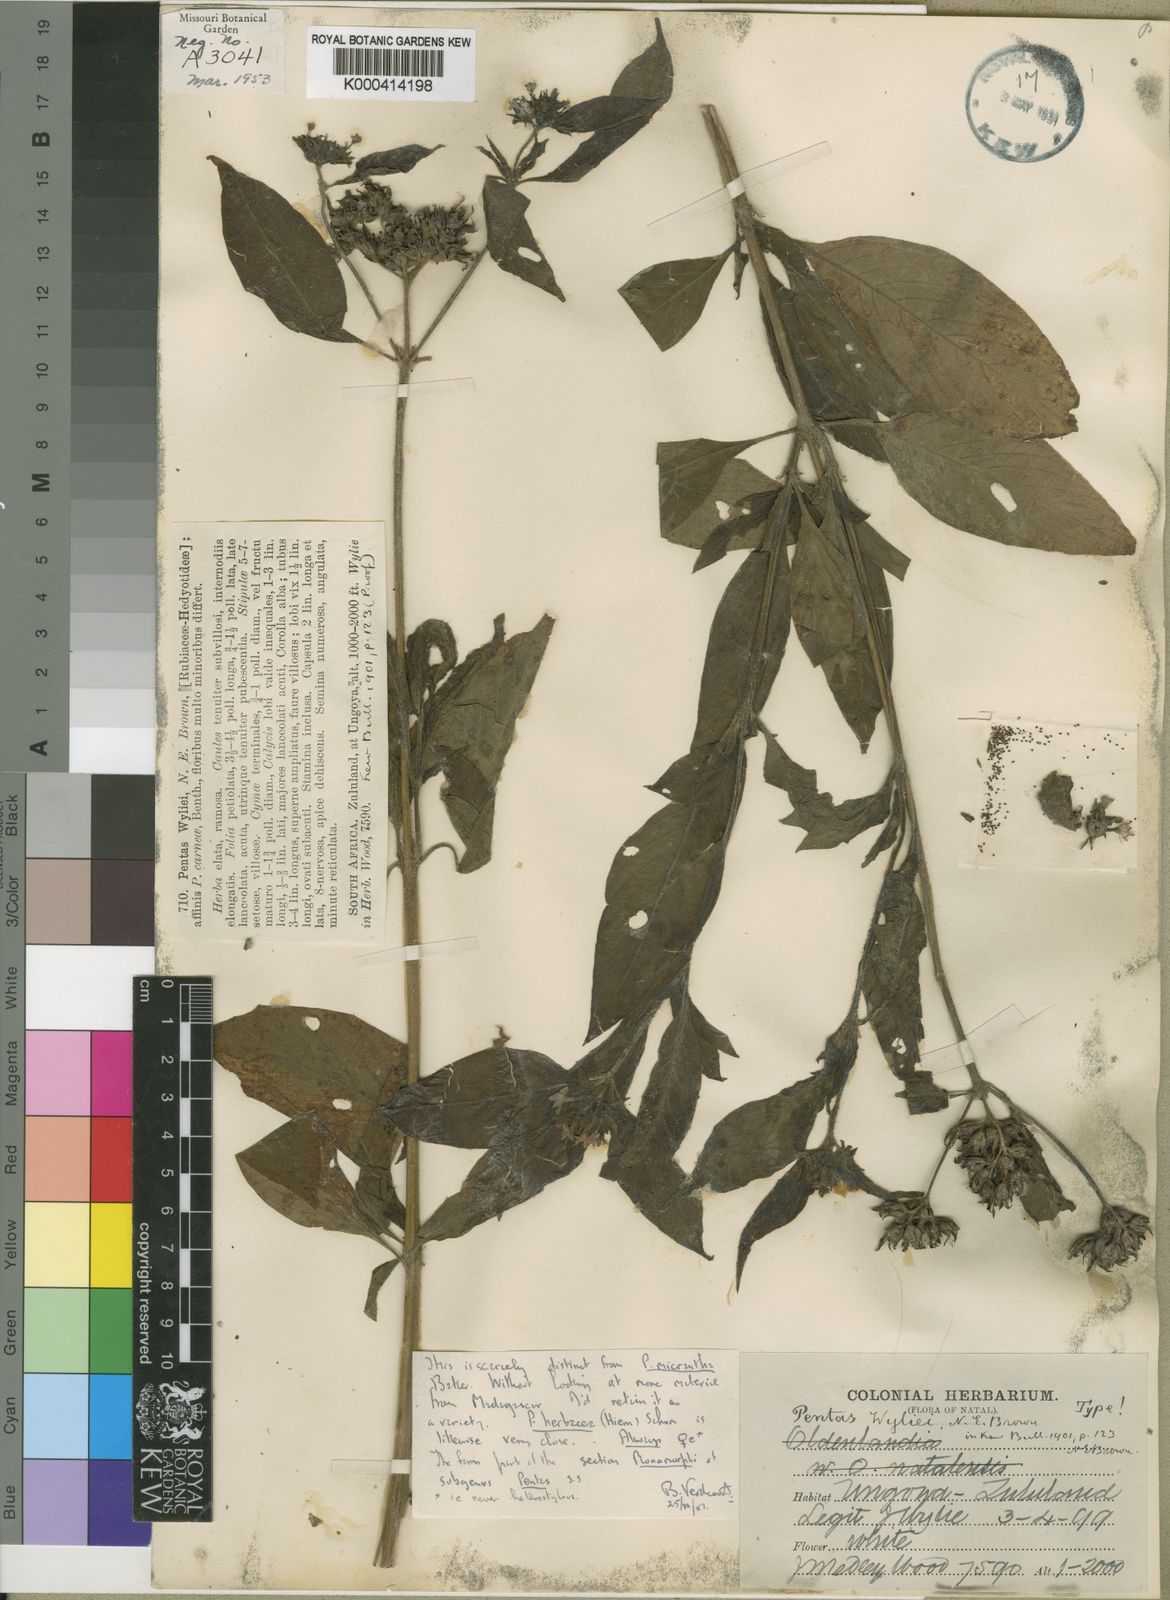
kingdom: Plantae
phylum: Tracheophyta
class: Magnoliopsida
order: Gentianales
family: Rubiaceae
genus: Pentas
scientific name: Pentas micrantha
